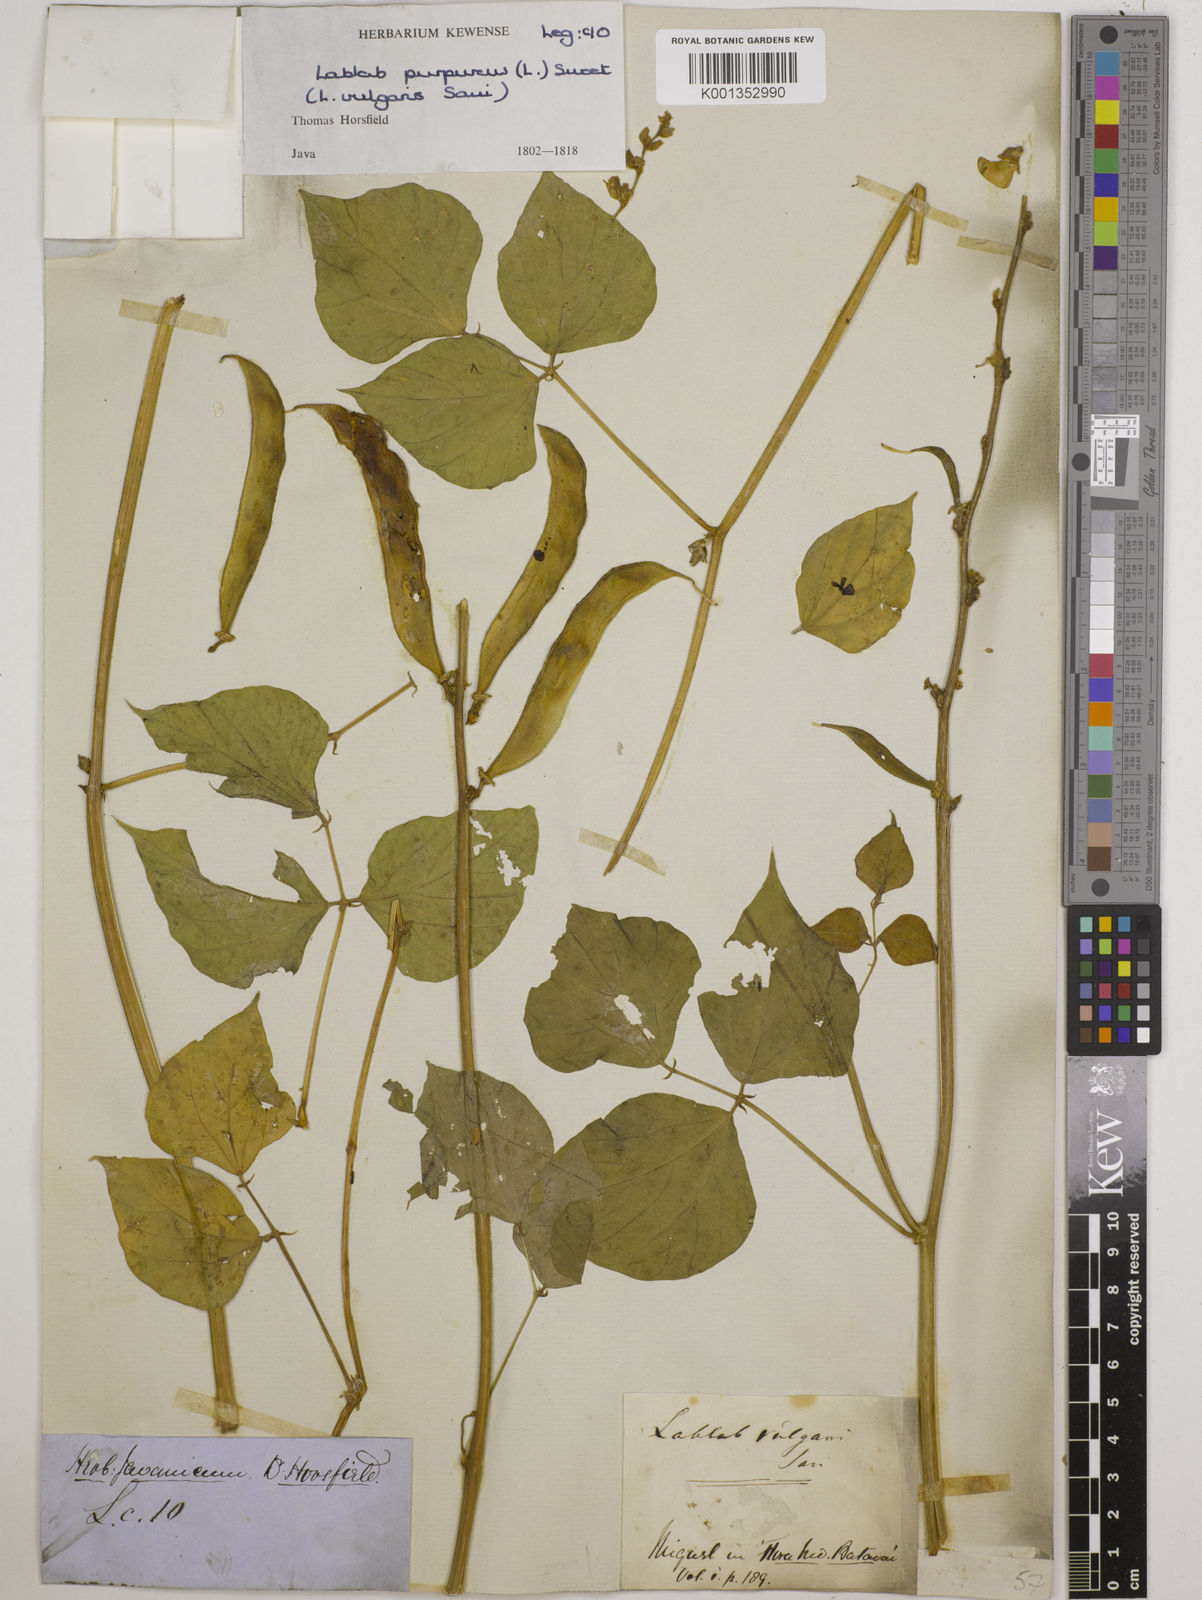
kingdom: Plantae
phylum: Tracheophyta
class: Magnoliopsida
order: Fabales
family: Fabaceae
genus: Lablab
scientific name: Lablab purpureus
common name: Lablab-bean
